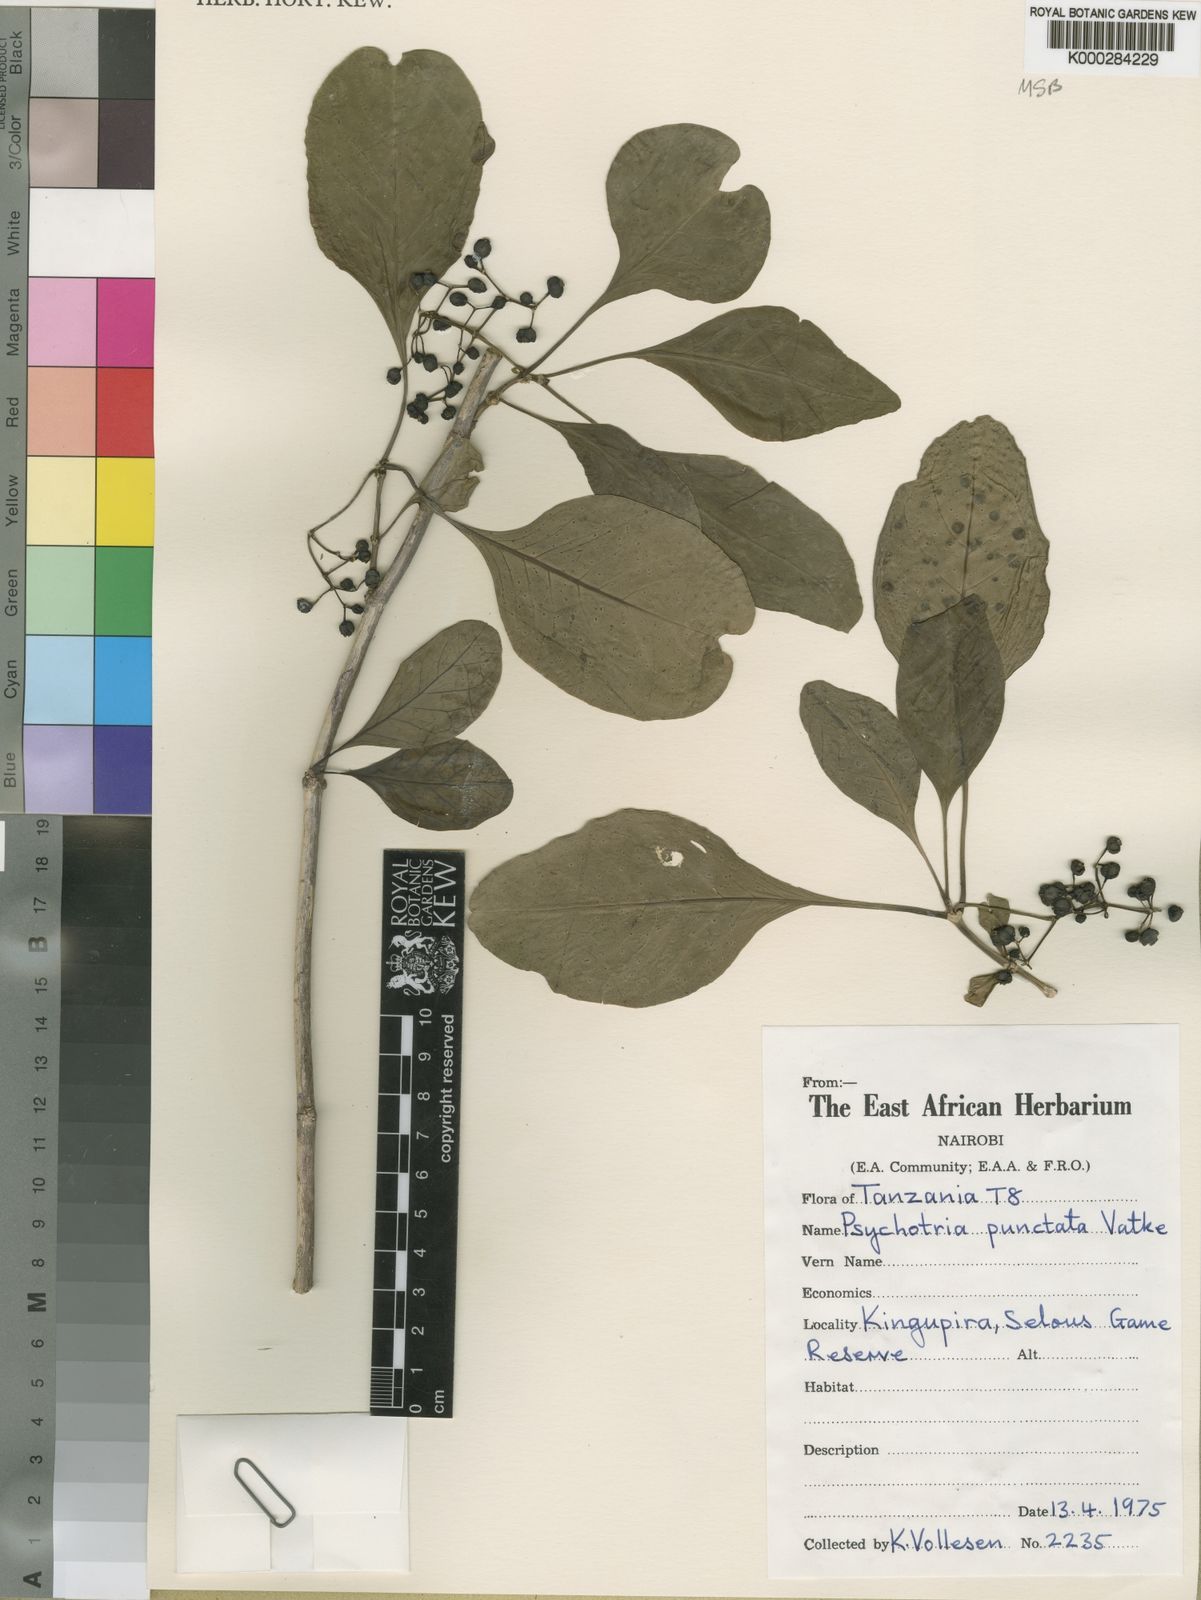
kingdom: Plantae
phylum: Tracheophyta
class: Magnoliopsida
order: Gentianales
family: Rubiaceae
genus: Psychotria
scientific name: Psychotria punctata
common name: Dotted wild coffee
